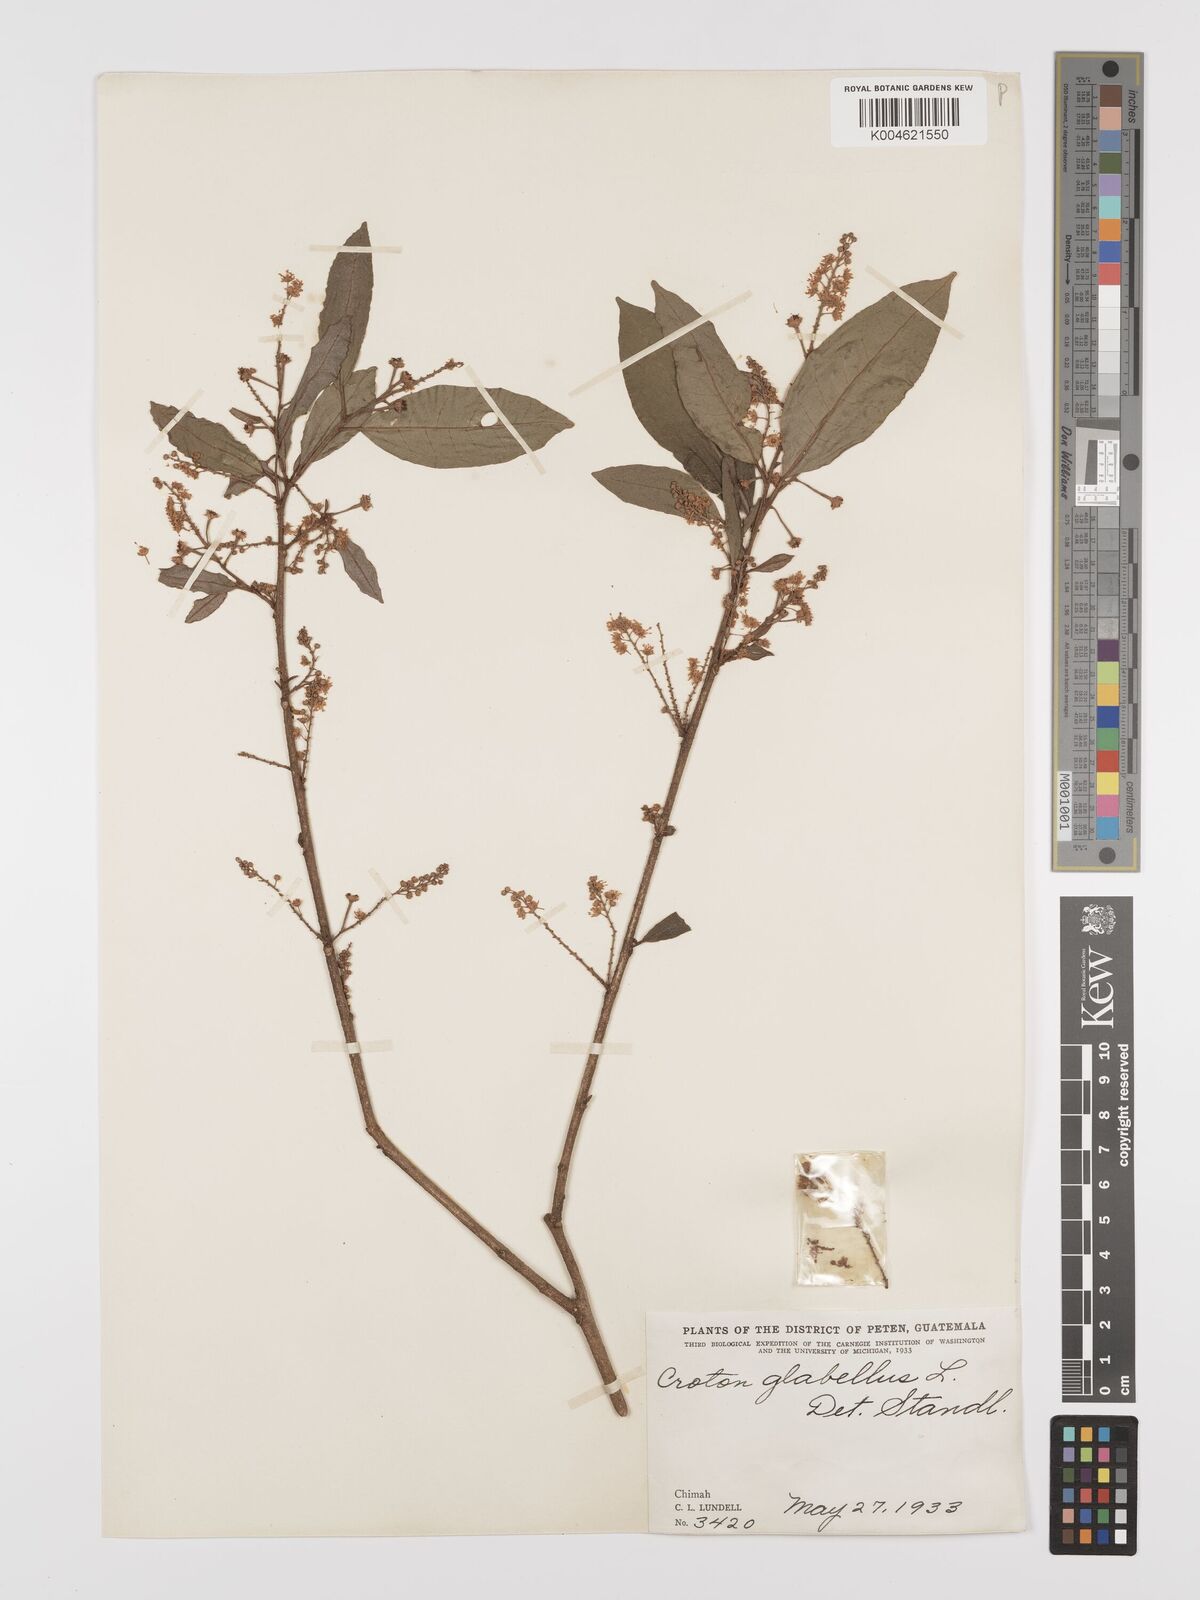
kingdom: Plantae
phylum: Tracheophyta
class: Magnoliopsida
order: Malpighiales
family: Euphorbiaceae
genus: Croton
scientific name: Croton glabellus
